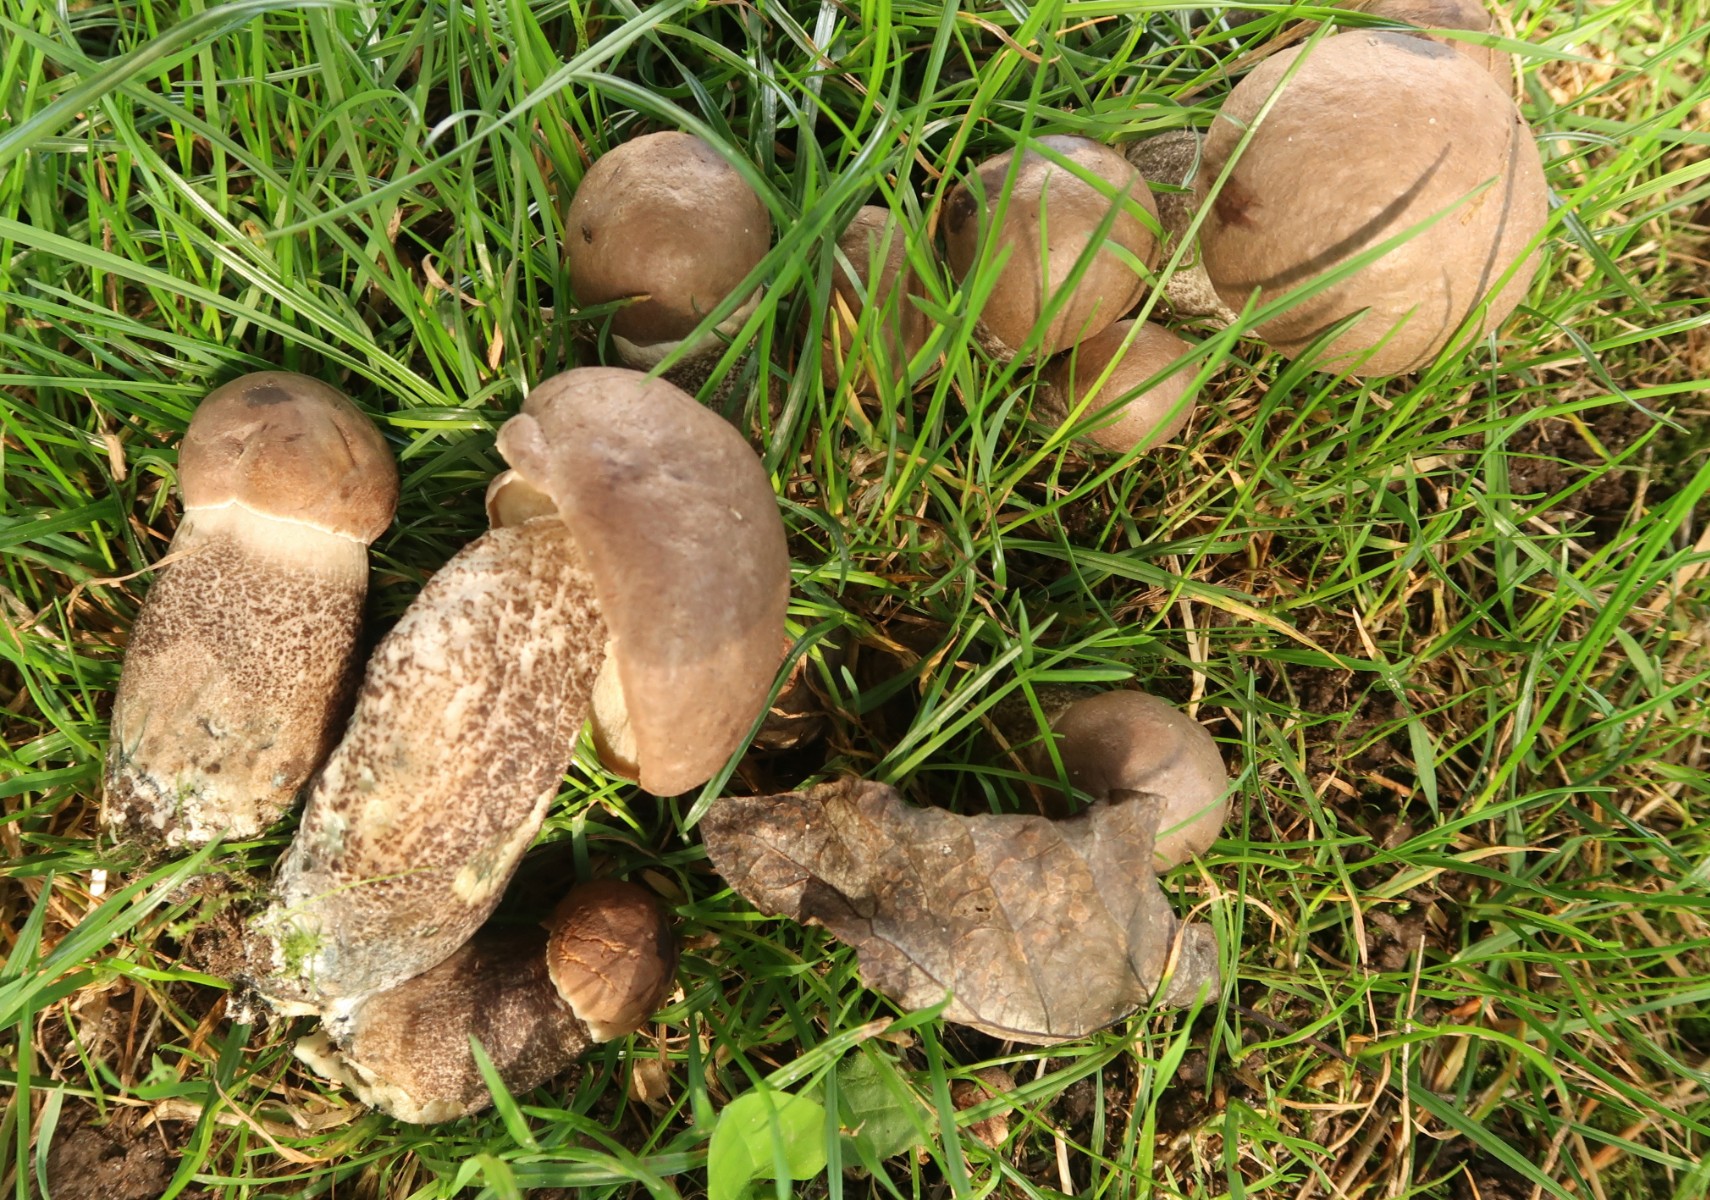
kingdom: Fungi
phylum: Basidiomycota
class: Agaricomycetes
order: Boletales
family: Boletaceae
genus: Leccinum
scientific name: Leccinum duriusculum
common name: poppel-skælrørhat
